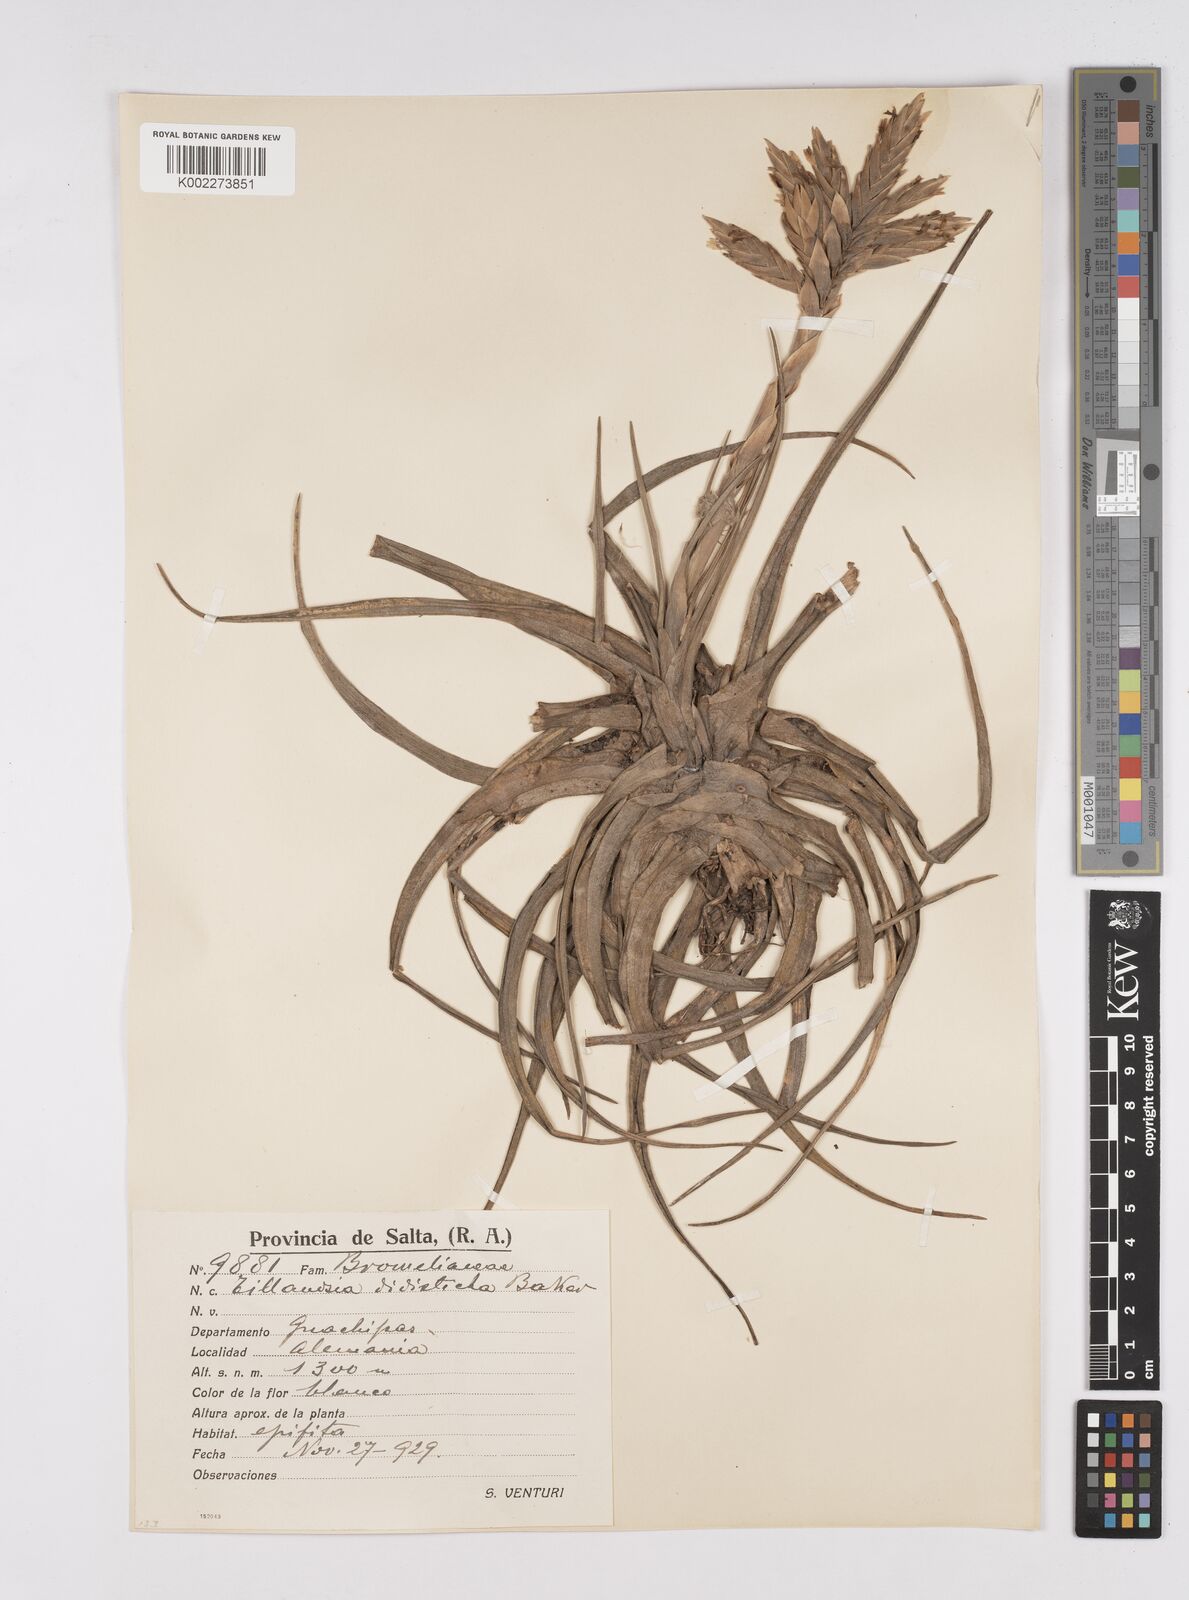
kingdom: Plantae
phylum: Tracheophyta
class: Liliopsida
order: Poales
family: Bromeliaceae
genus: Tillandsia
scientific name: Tillandsia didisticha
